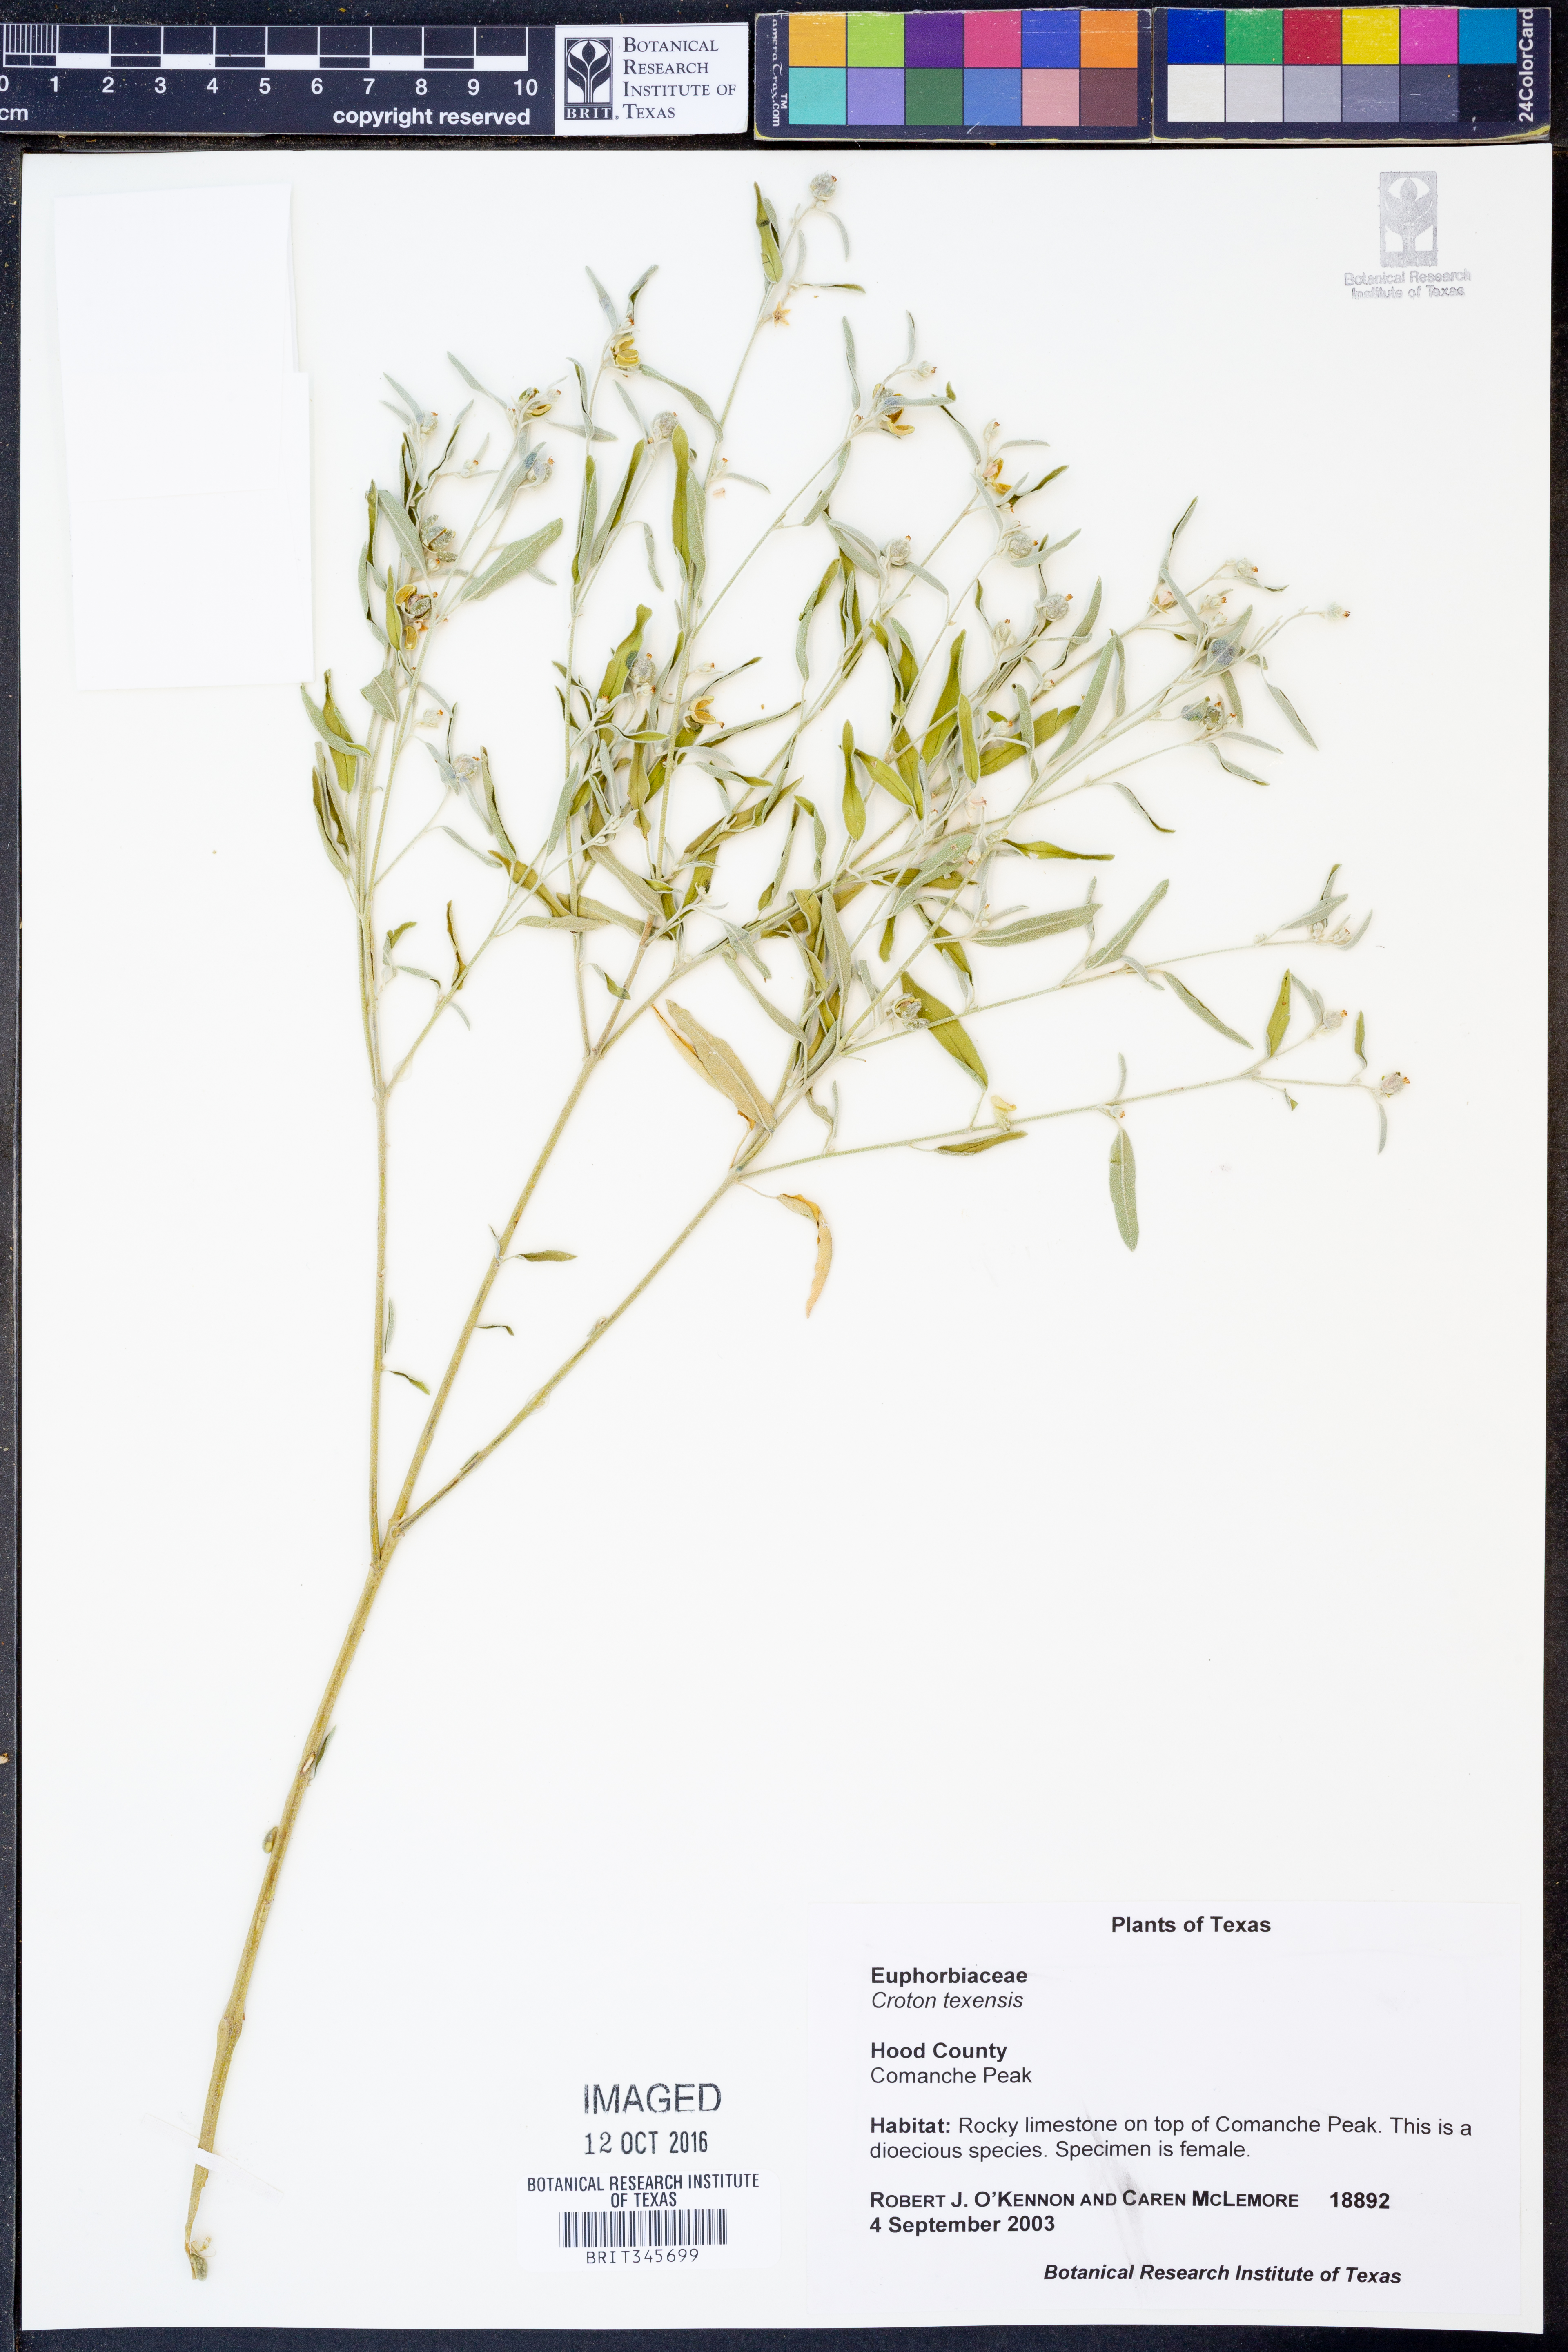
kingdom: Plantae
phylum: Tracheophyta
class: Magnoliopsida
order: Malpighiales
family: Euphorbiaceae
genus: Croton
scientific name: Croton texensis
